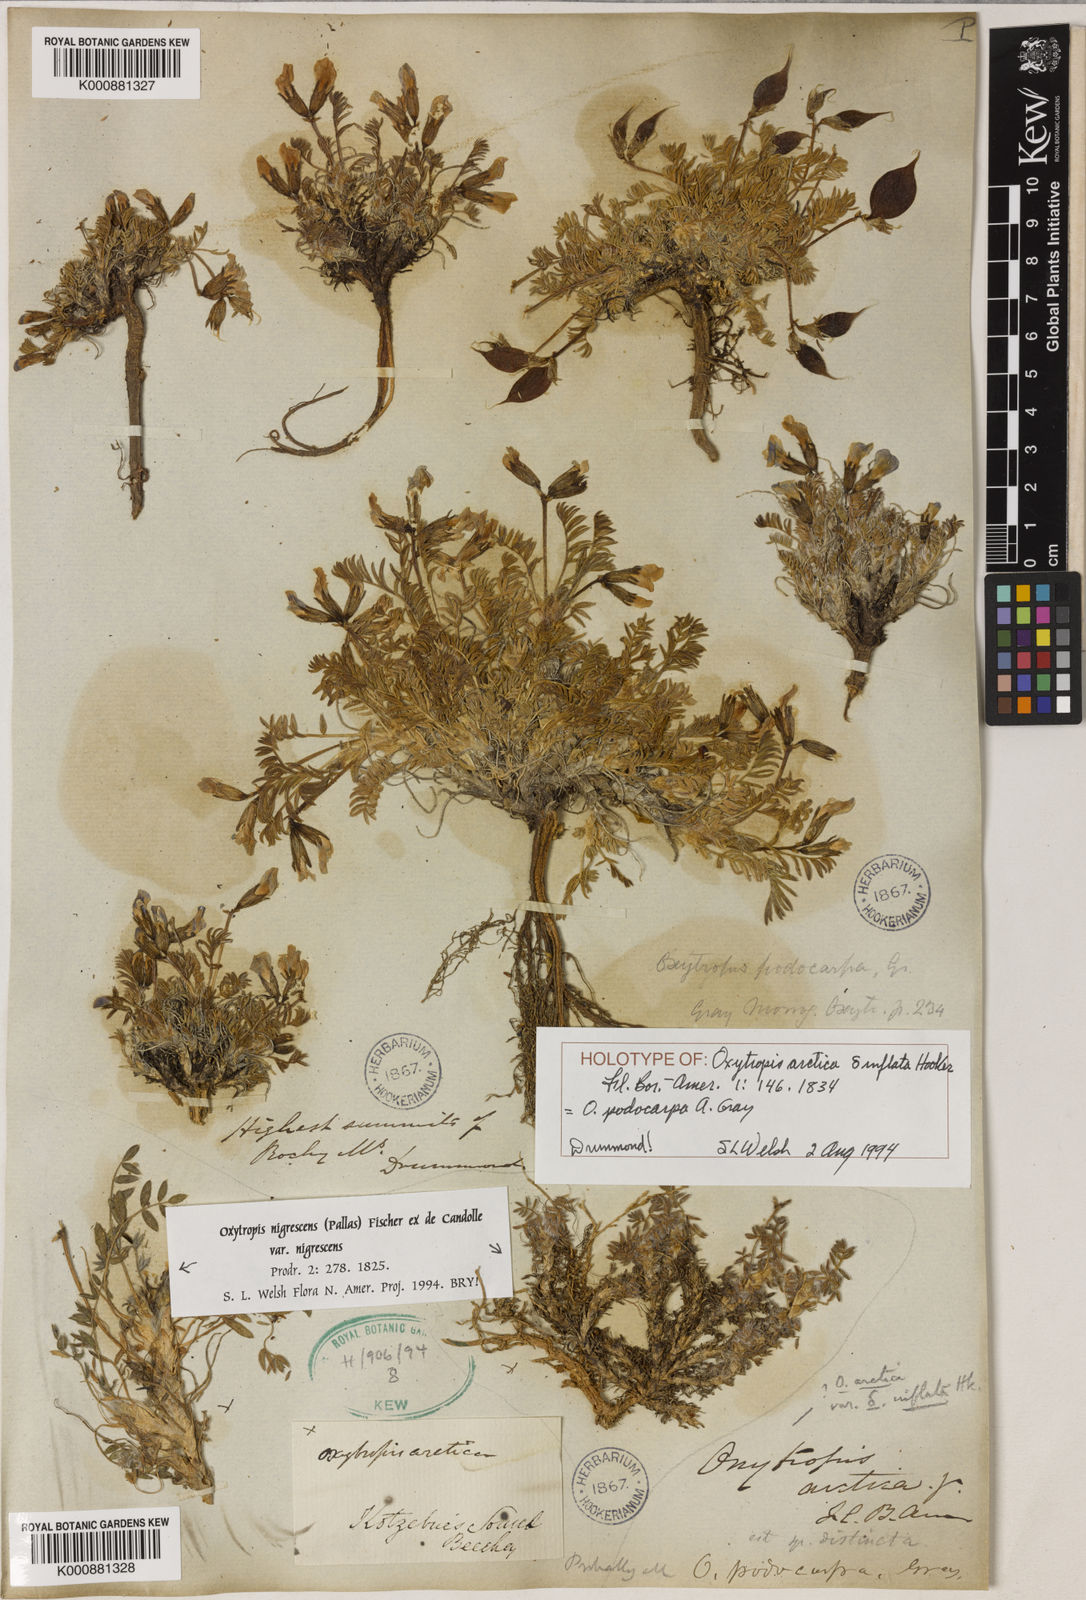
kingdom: Plantae
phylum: Tracheophyta
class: Magnoliopsida
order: Fabales
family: Fabaceae
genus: Oxytropis
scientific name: Oxytropis nigrescens
